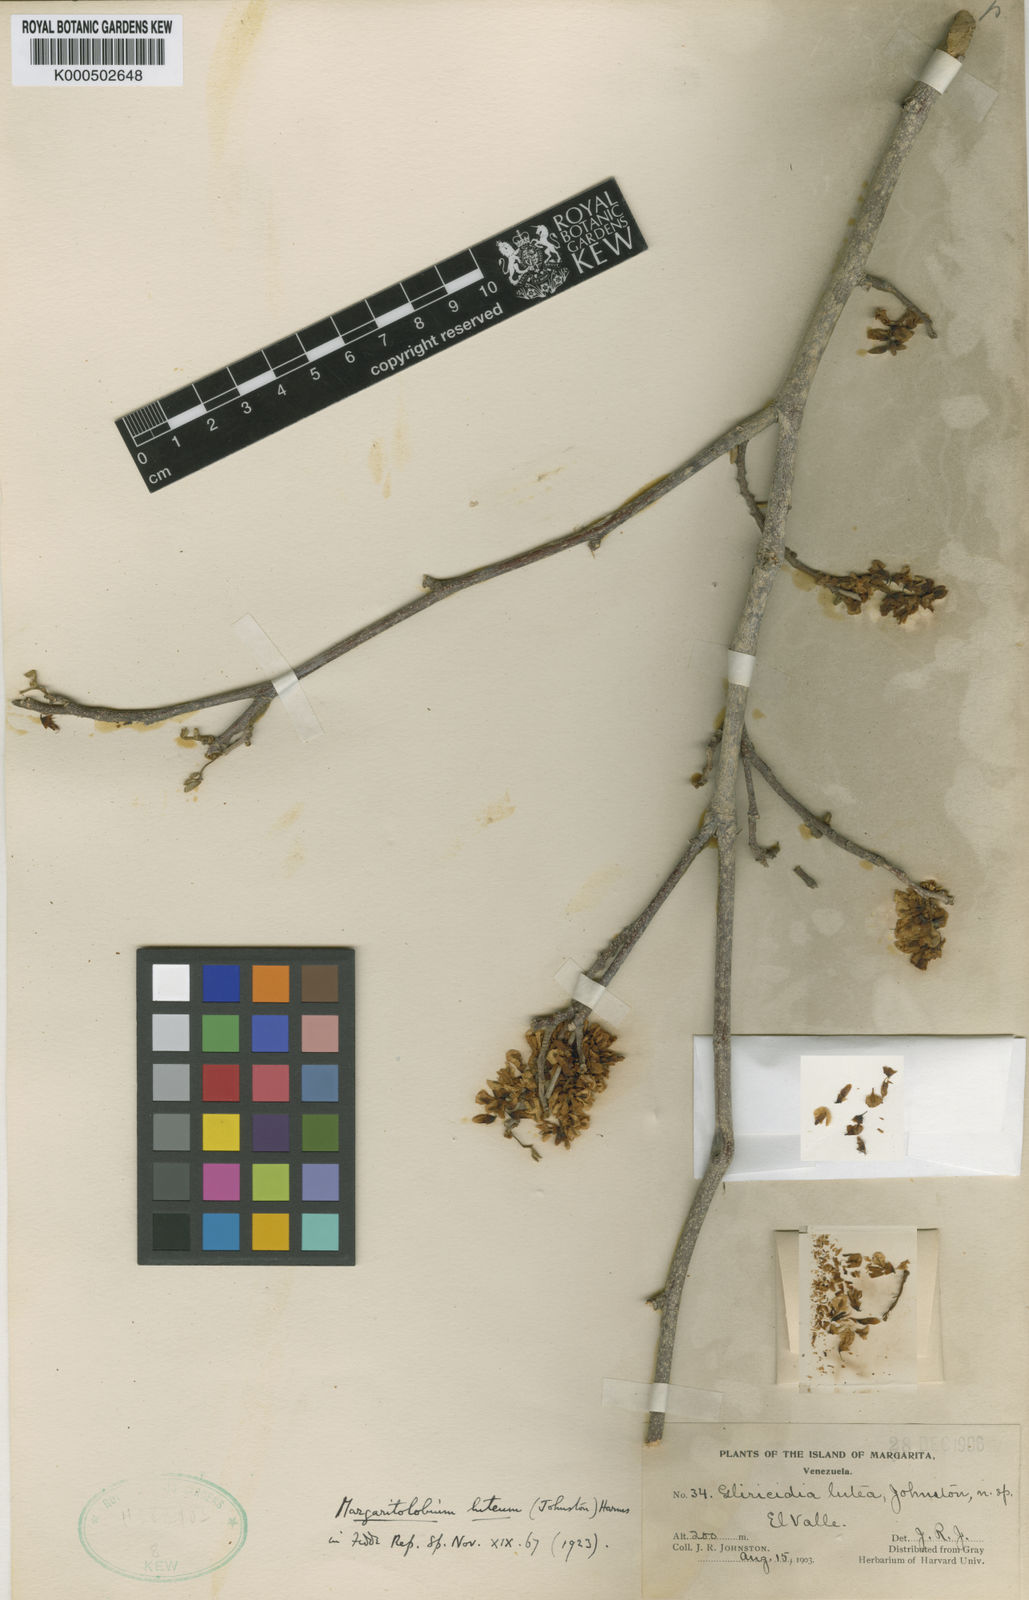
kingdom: Plantae
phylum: Tracheophyta
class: Magnoliopsida
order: Fabales
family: Fabaceae
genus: Muellera
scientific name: Muellera lutea
